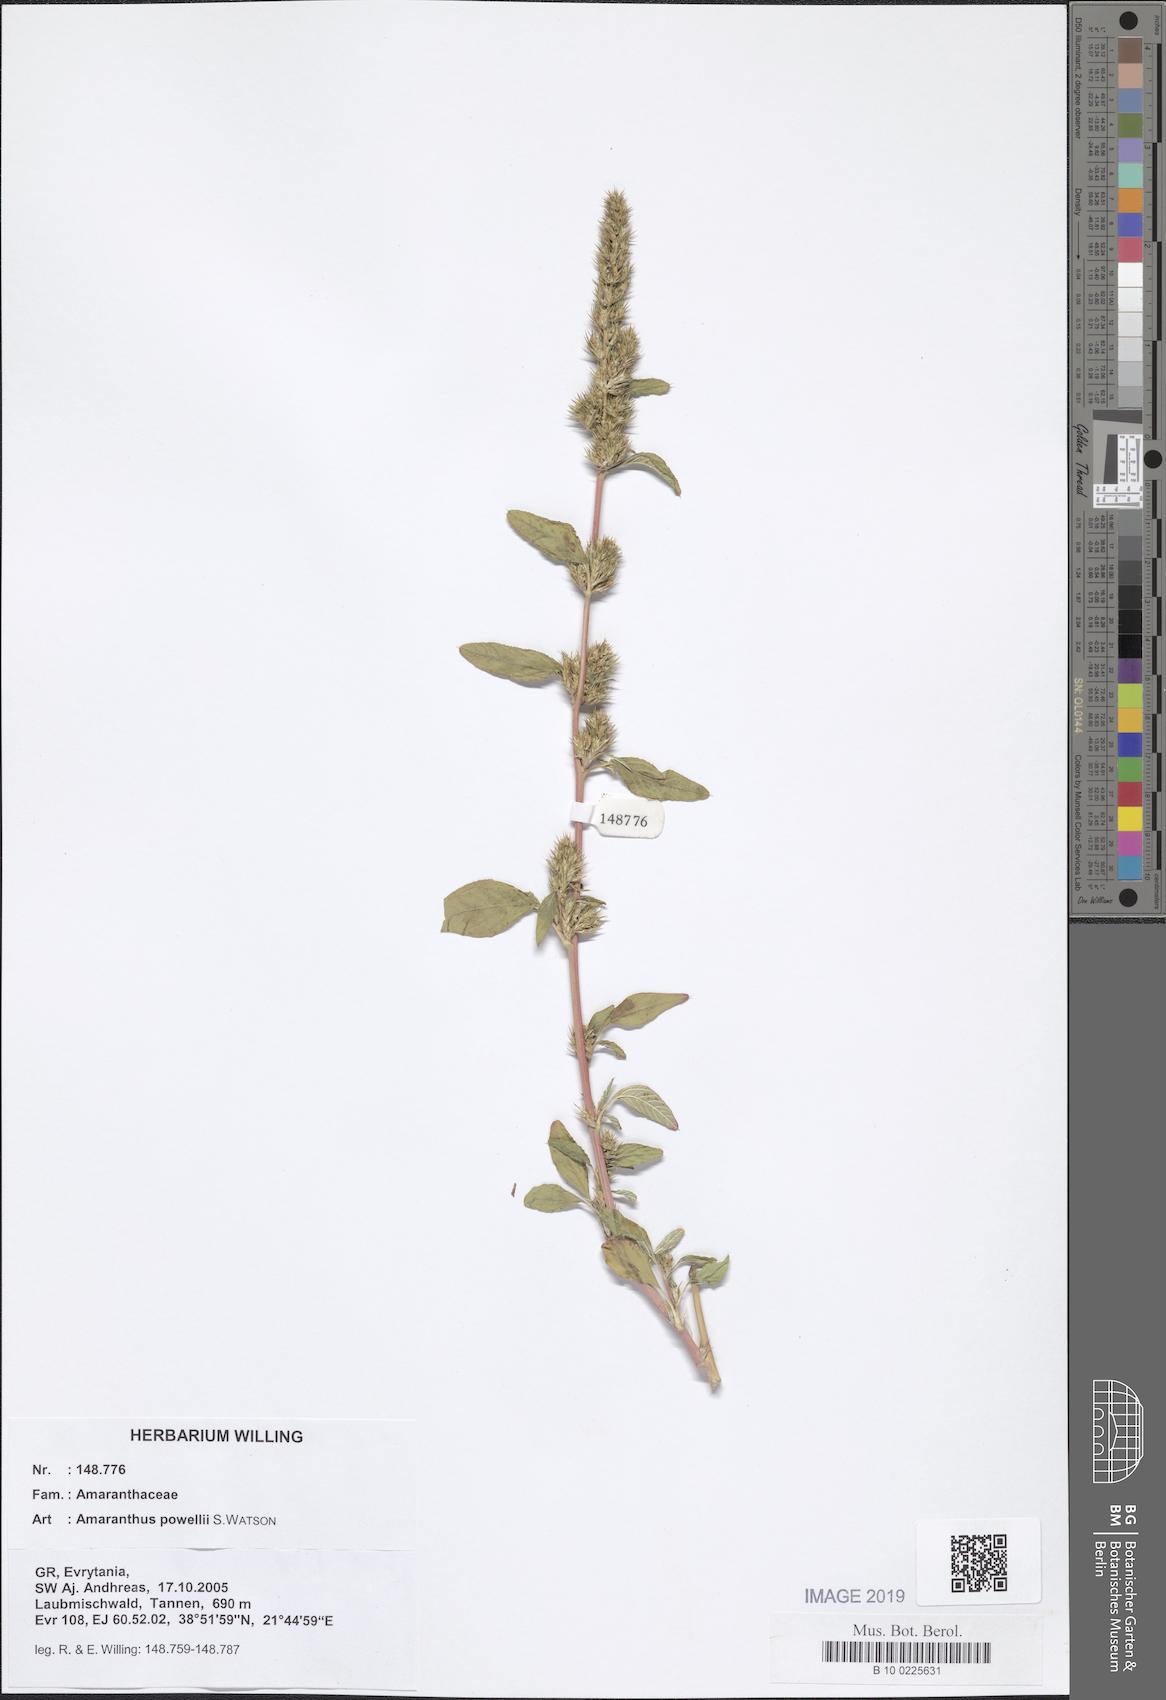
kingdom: Plantae
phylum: Tracheophyta
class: Magnoliopsida
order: Caryophyllales
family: Amaranthaceae
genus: Amaranthus
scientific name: Amaranthus powellii
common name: Powell's amaranth
